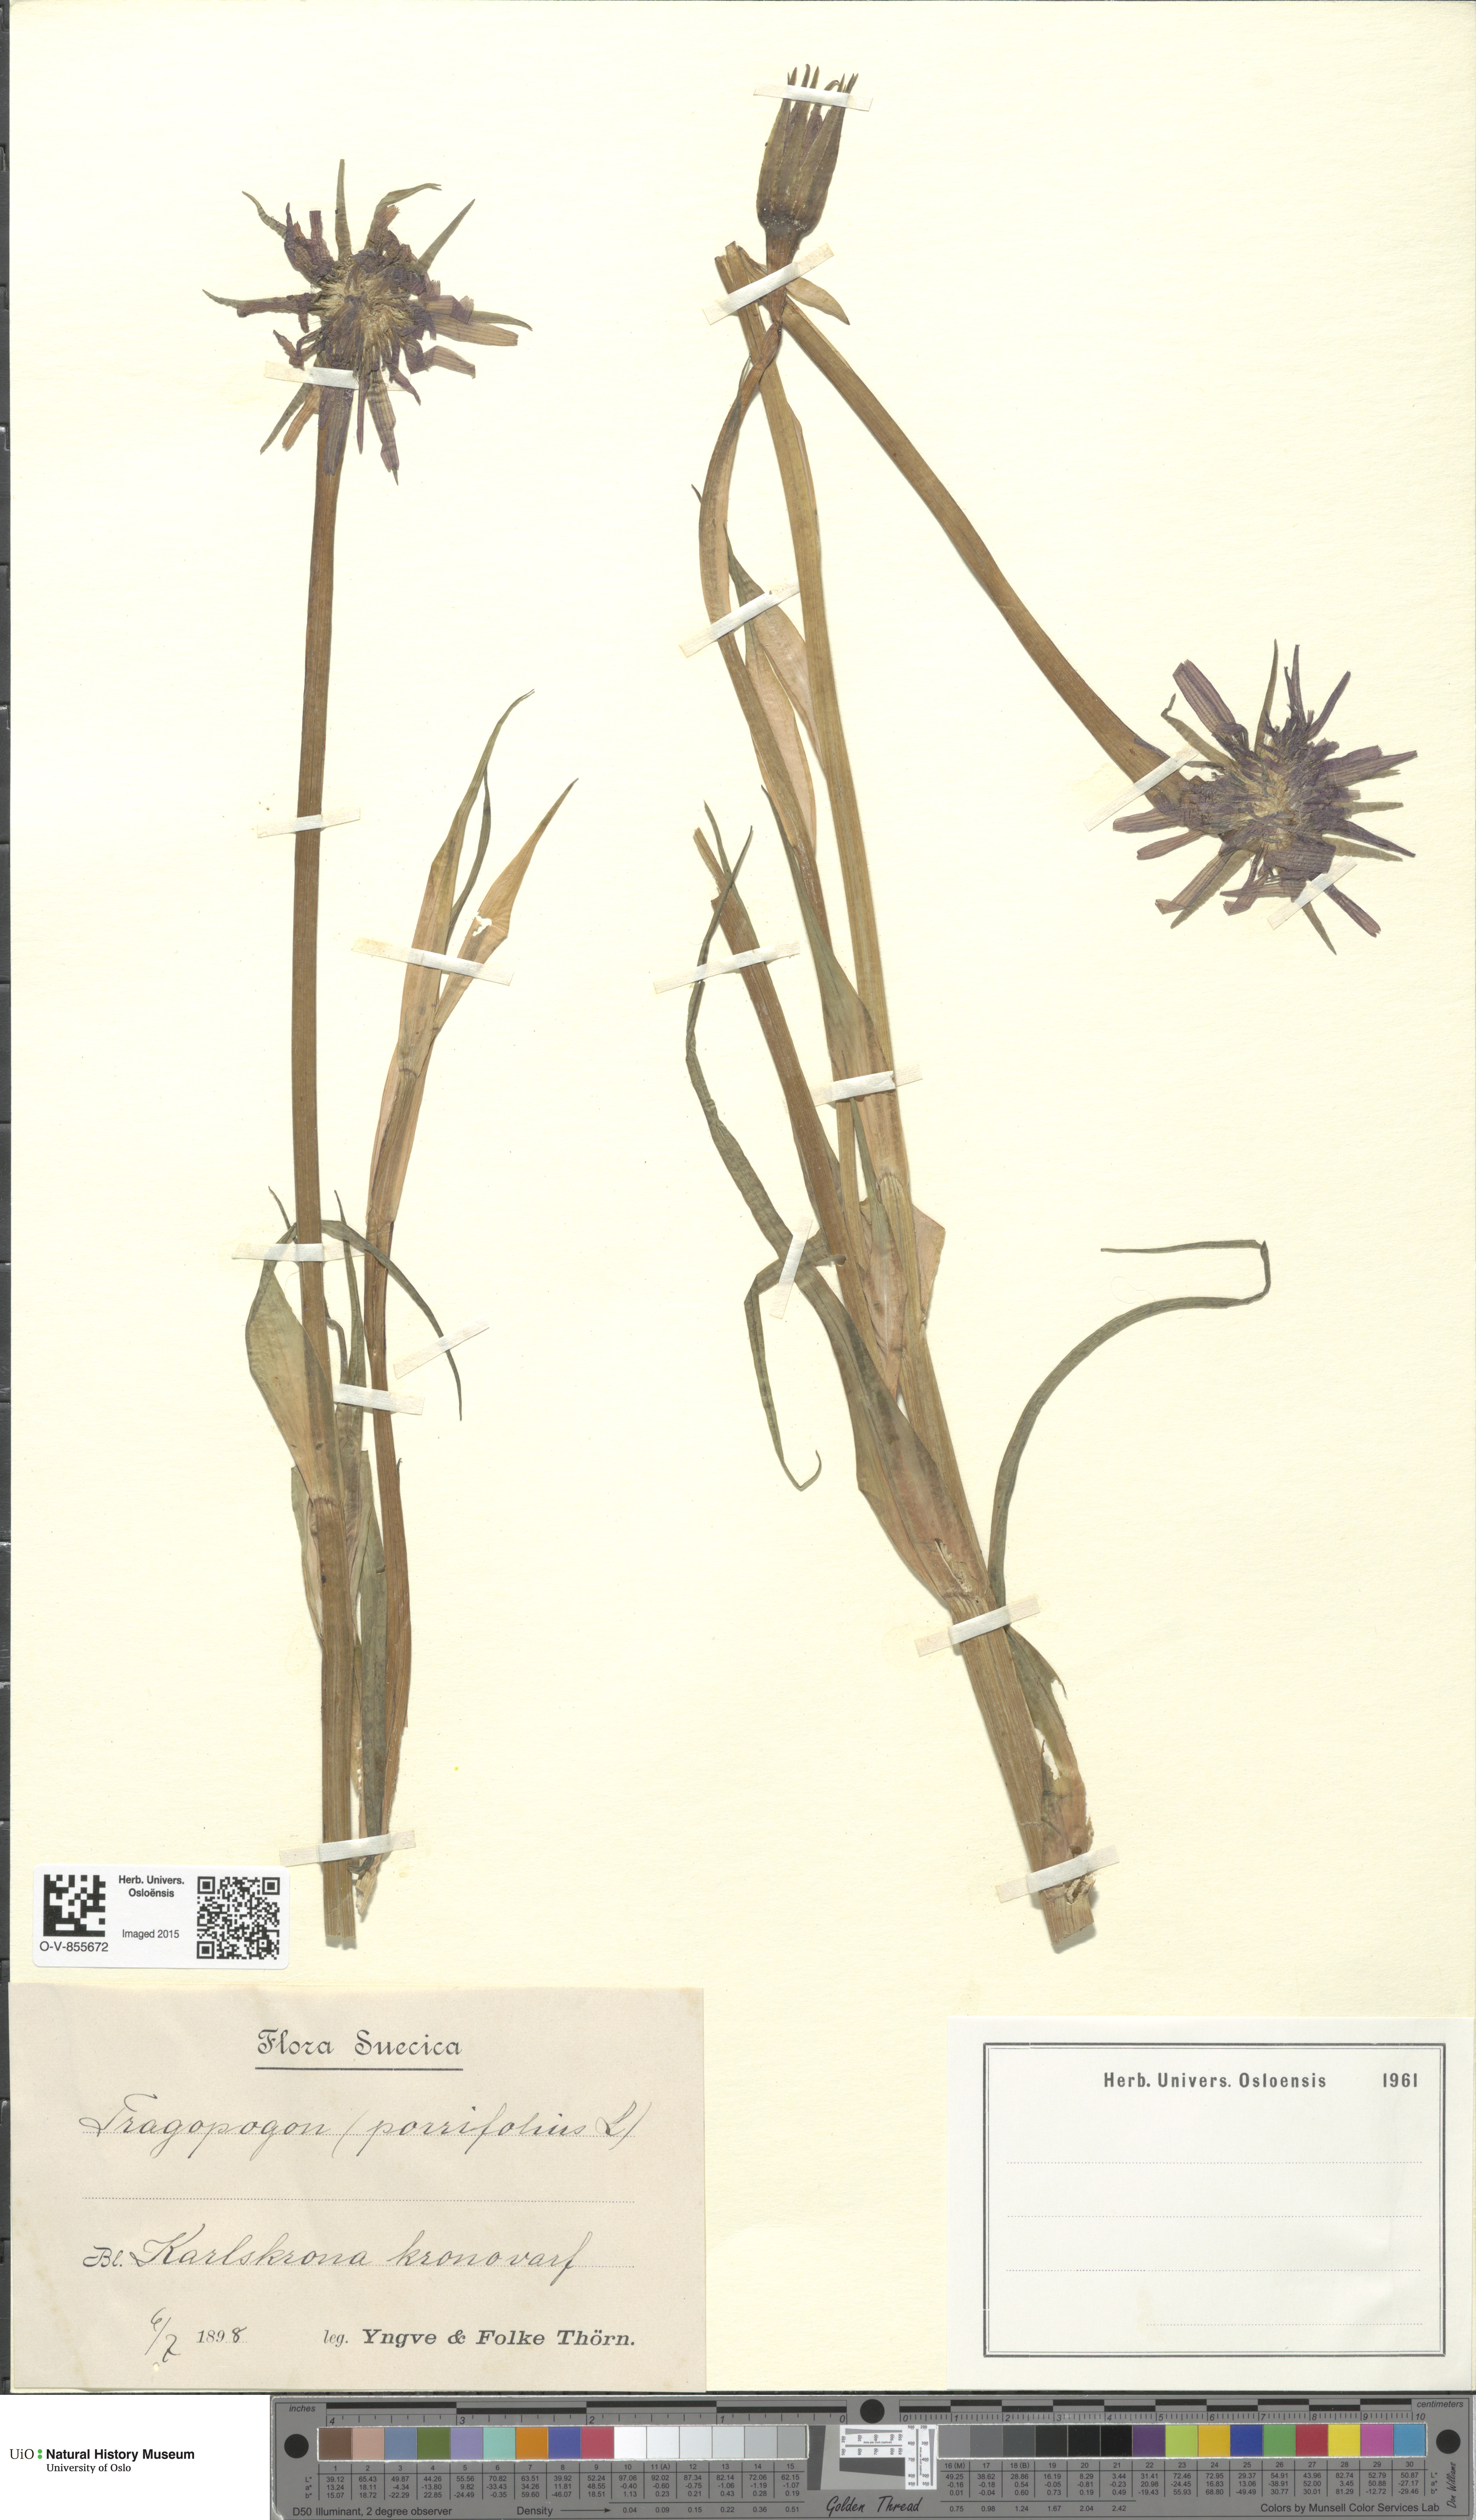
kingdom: Plantae
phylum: Tracheophyta
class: Magnoliopsida
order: Asterales
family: Asteraceae
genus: Tragopogon
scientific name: Tragopogon porrifolius
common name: Salsify
